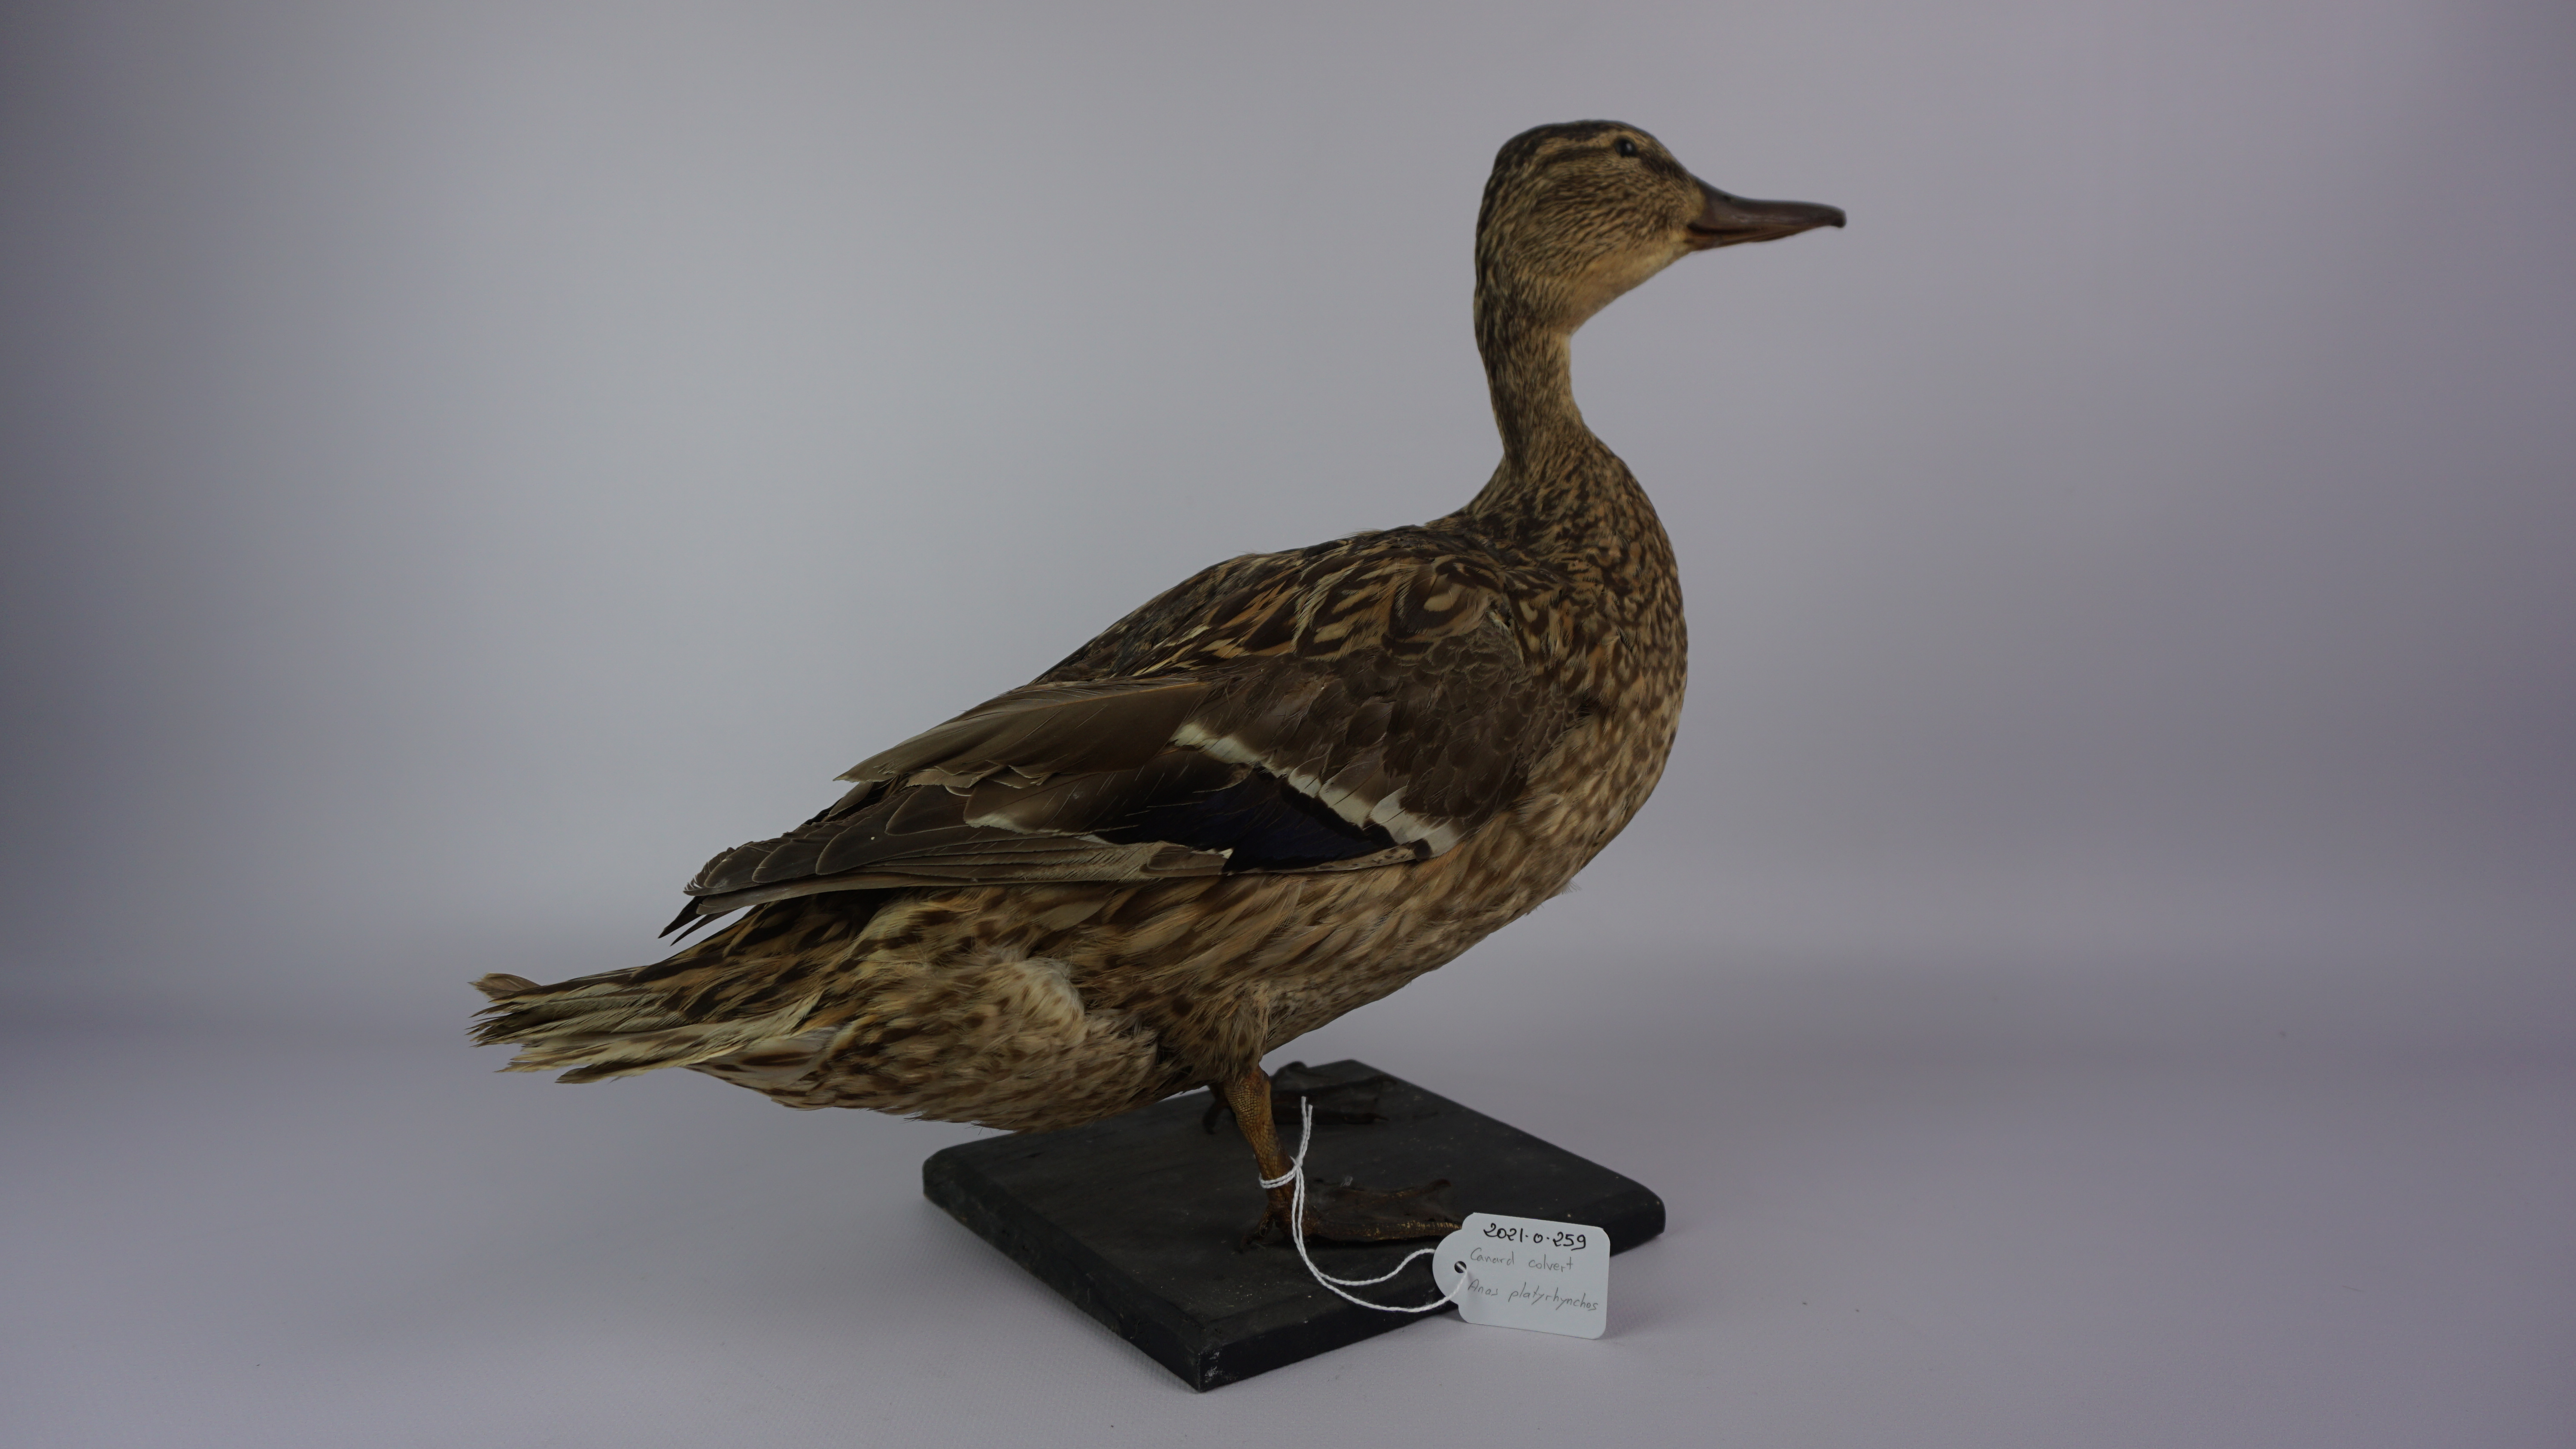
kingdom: Animalia
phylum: Chordata
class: Aves
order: Anseriformes
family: Anatidae
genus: Anas
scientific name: Anas platyrhynchos
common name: Mallard
